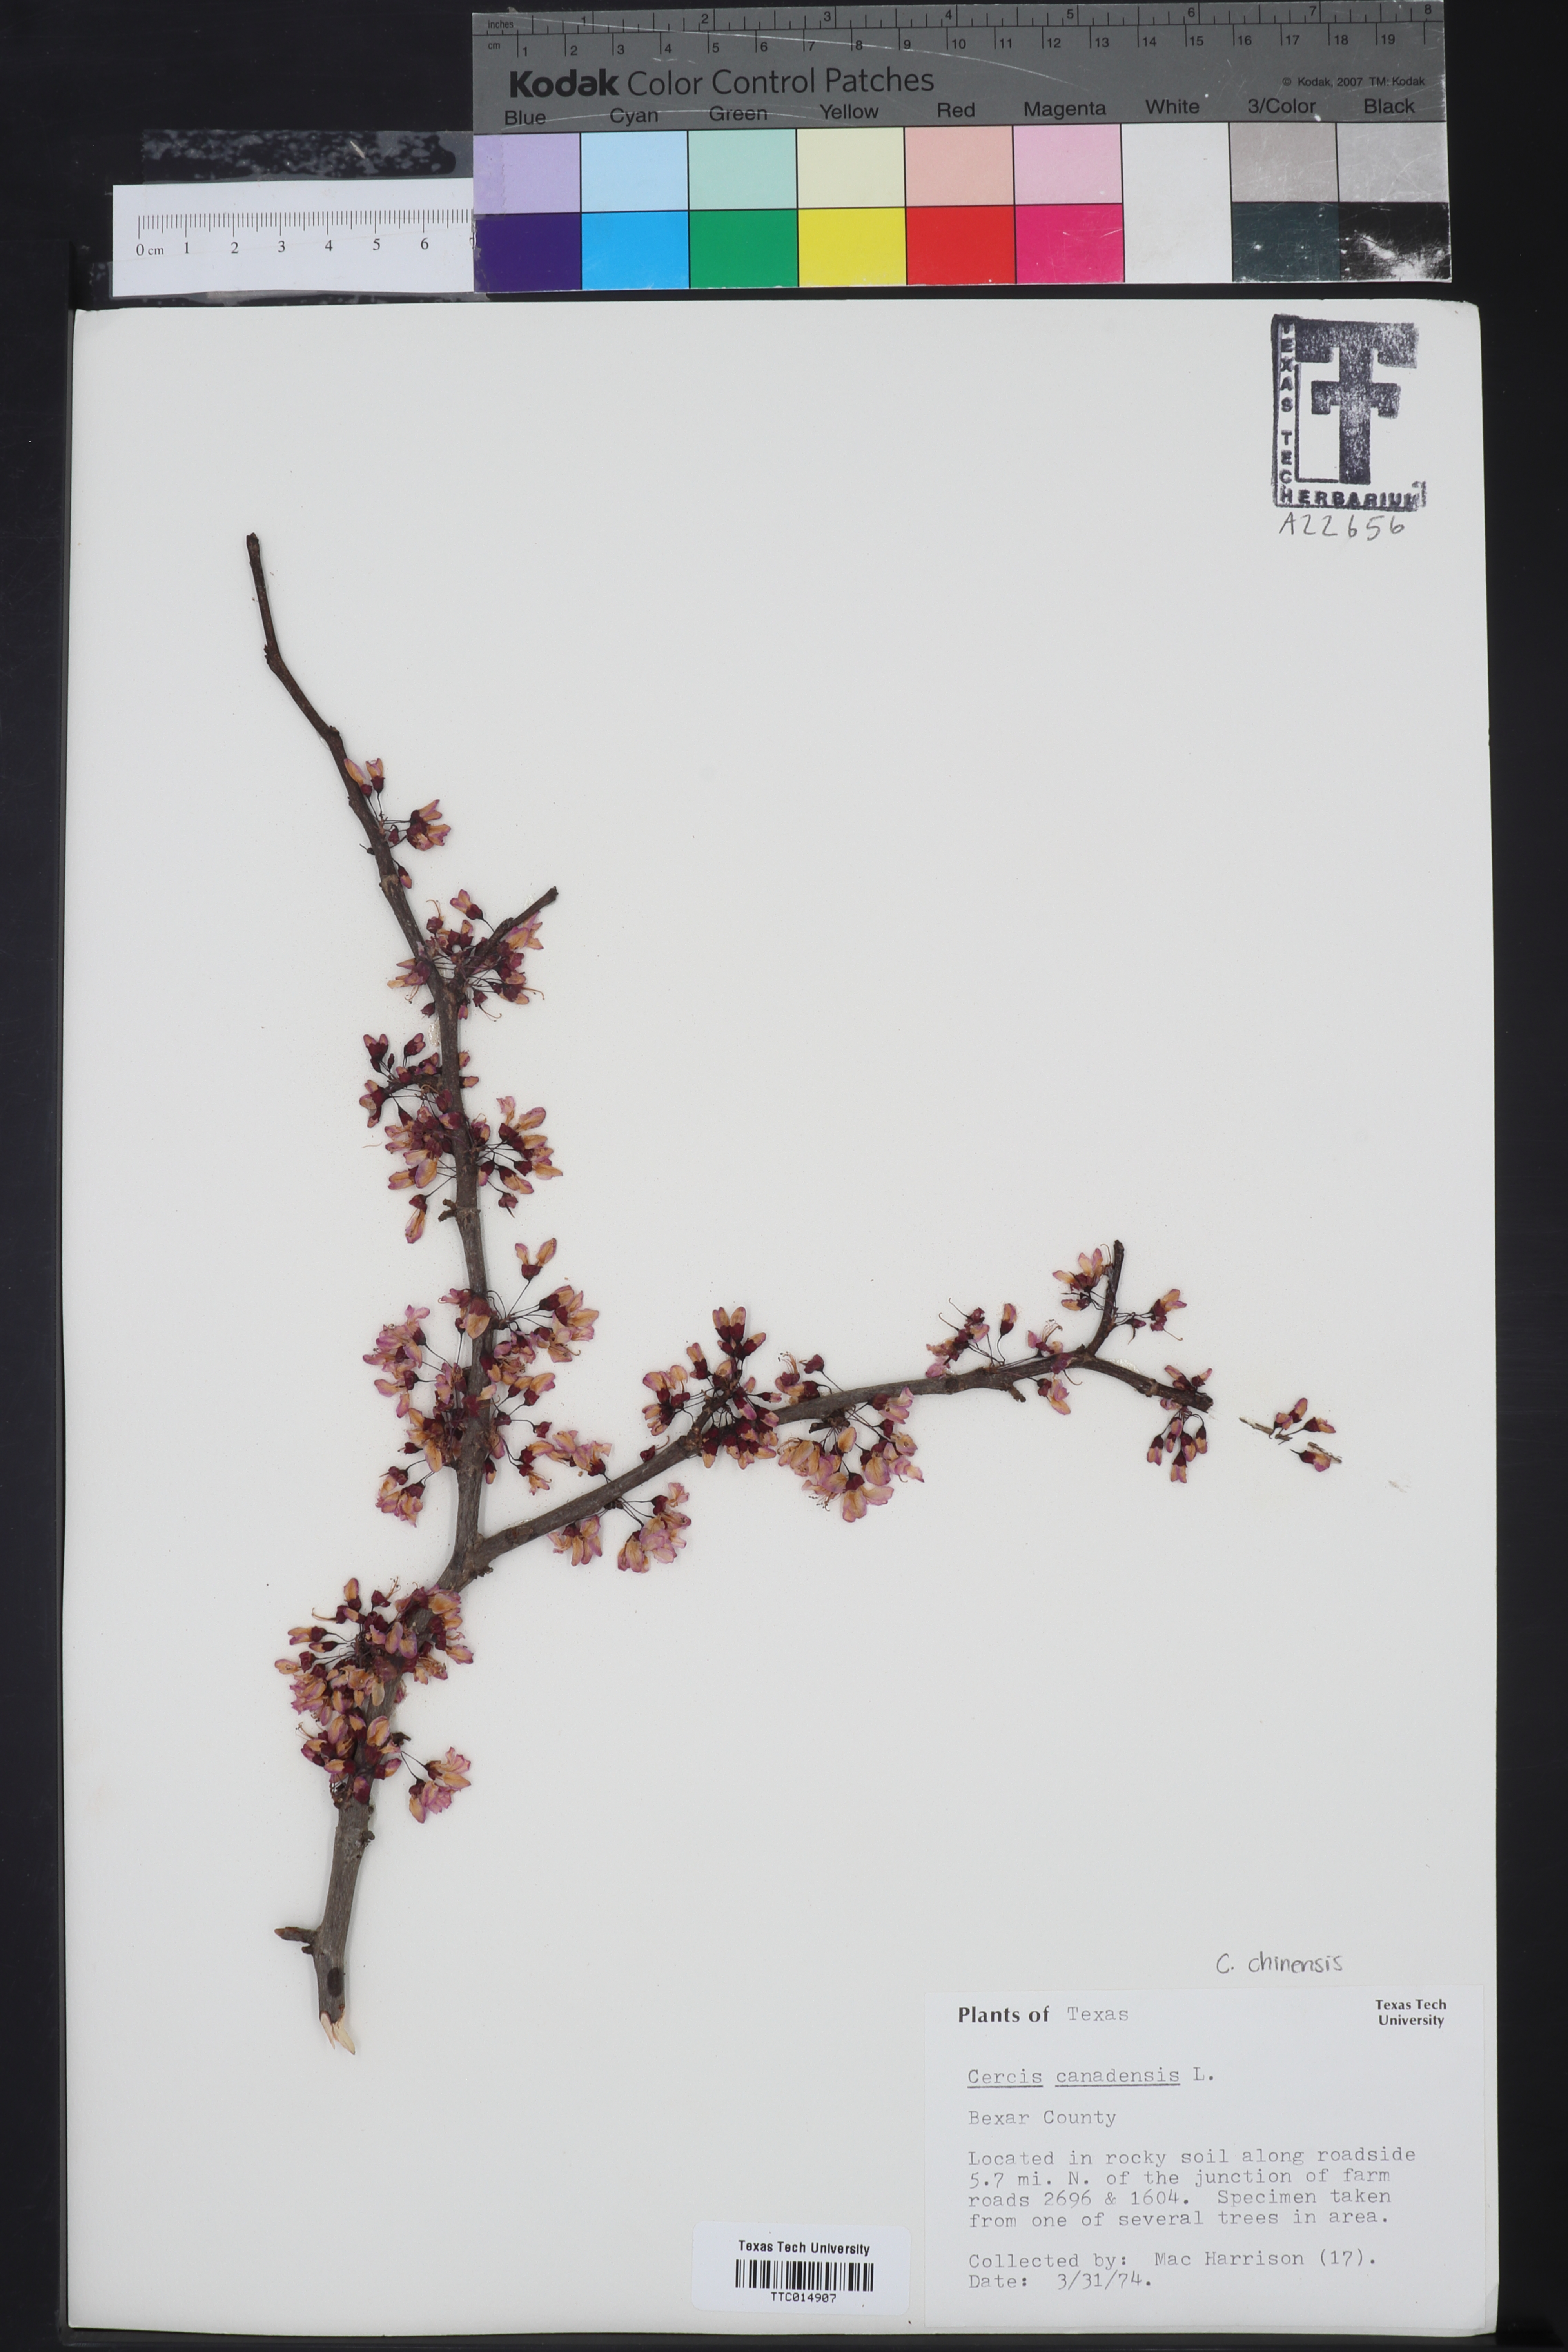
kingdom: Plantae
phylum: Tracheophyta
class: Magnoliopsida
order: Fabales
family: Fabaceae
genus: Cercis
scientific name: Cercis canadensis
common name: Eastern redbud
